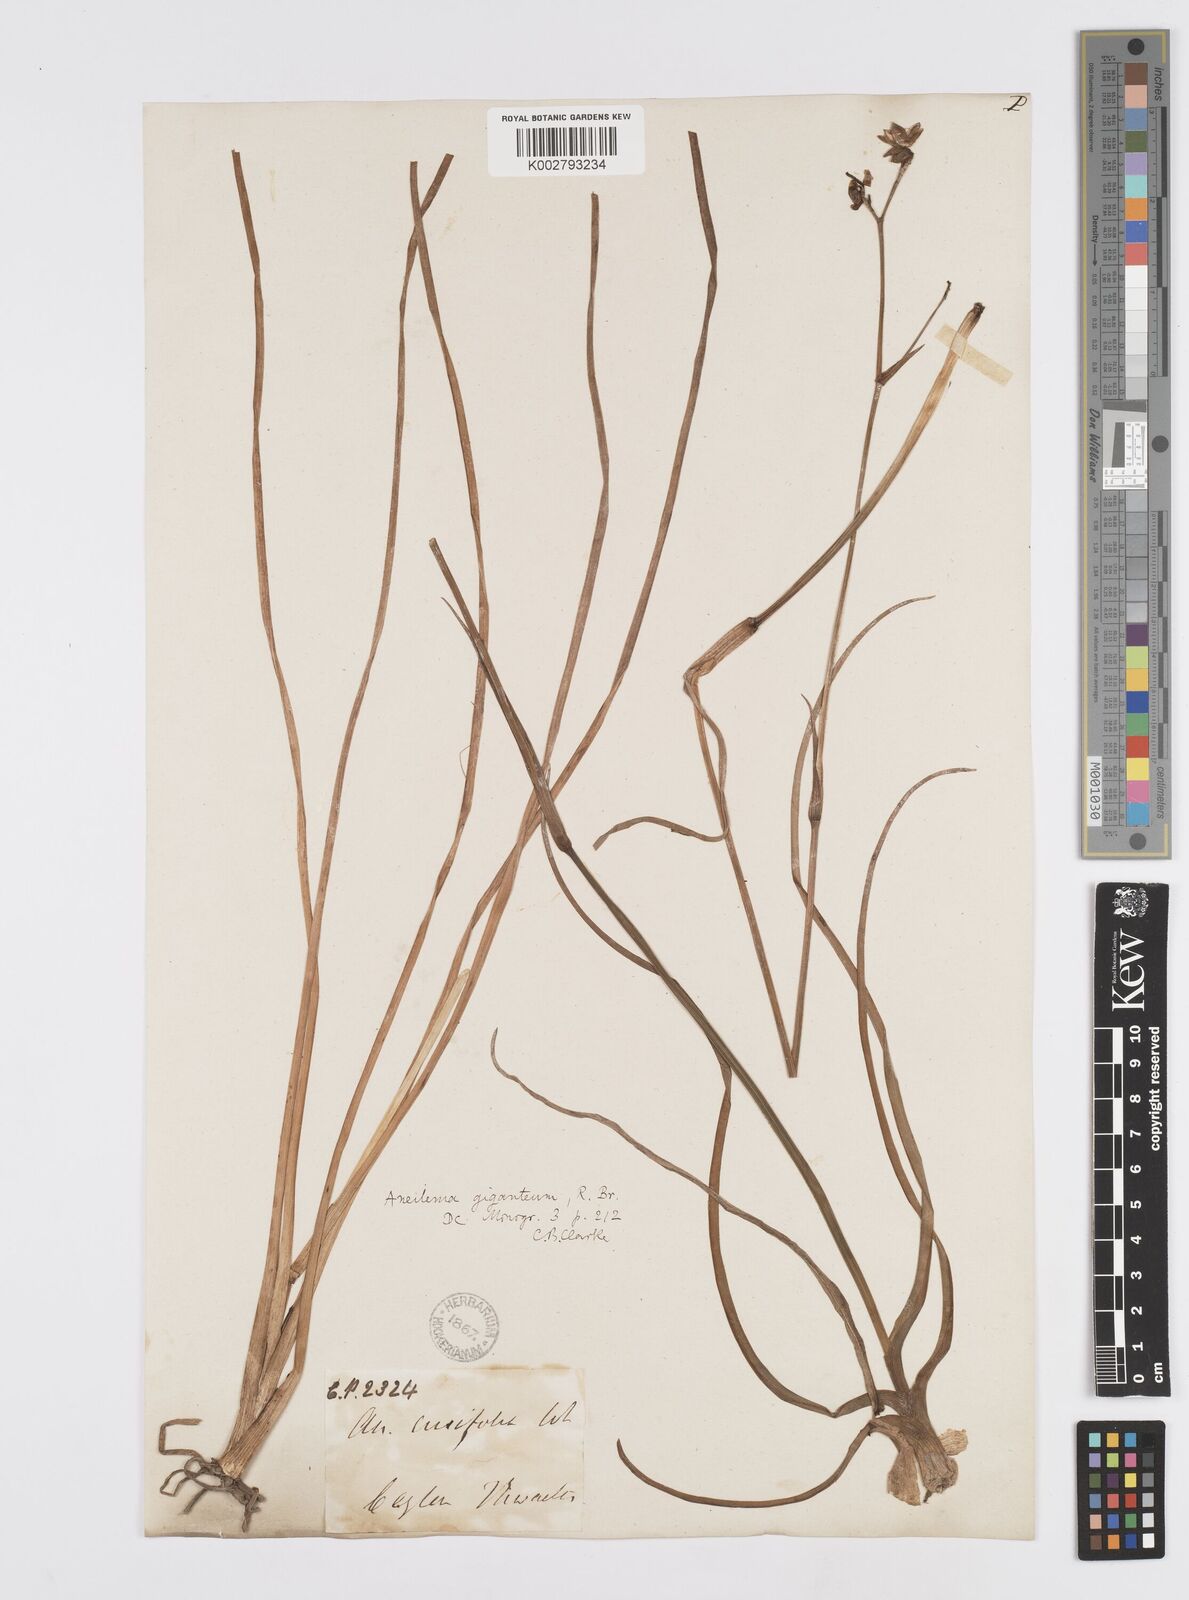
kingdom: Plantae
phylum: Tracheophyta
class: Liliopsida
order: Commelinales
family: Commelinaceae
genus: Murdannia
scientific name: Murdannia gigantea
